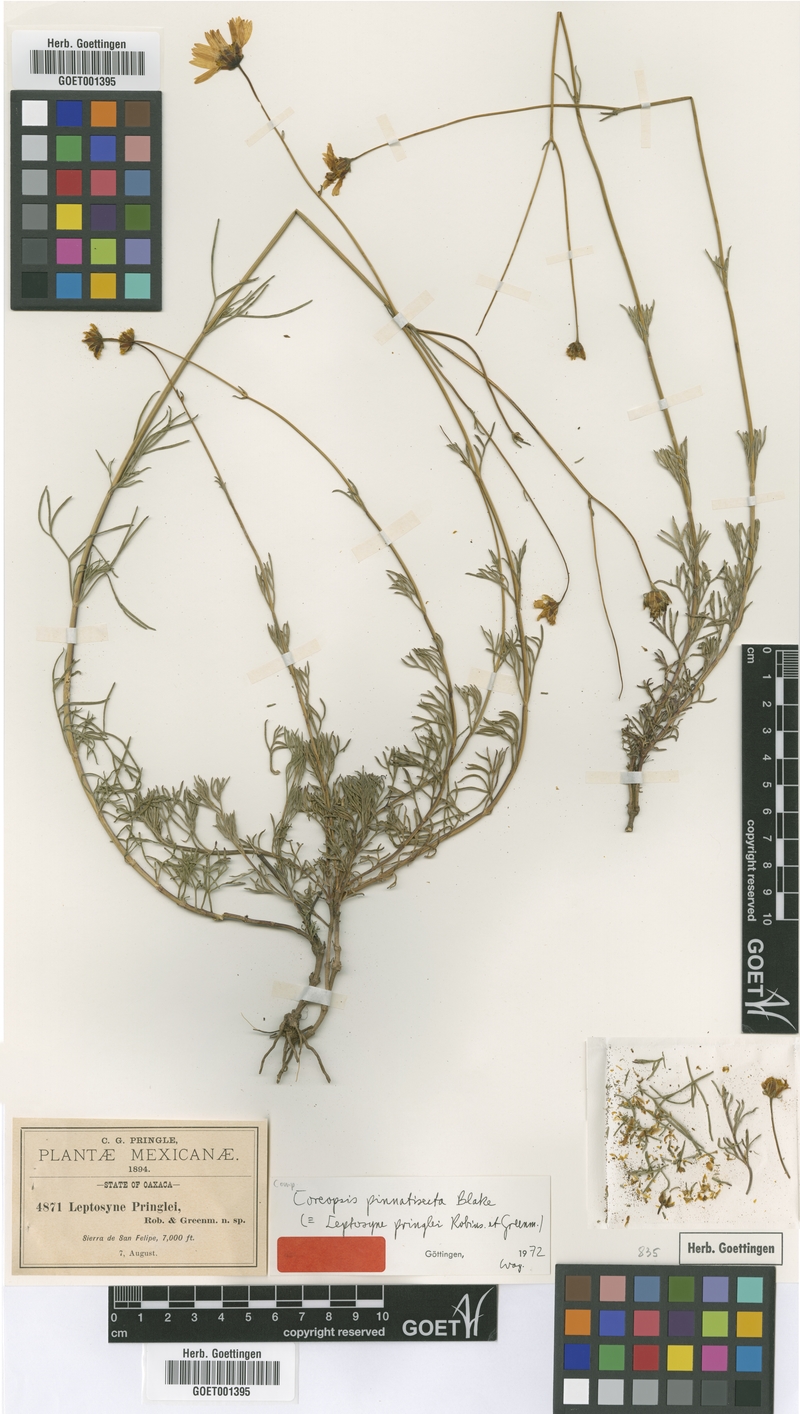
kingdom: Plantae
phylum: Tracheophyta
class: Magnoliopsida
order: Asterales
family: Asteraceae
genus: Heterosperma
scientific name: Heterosperma mexicanum
